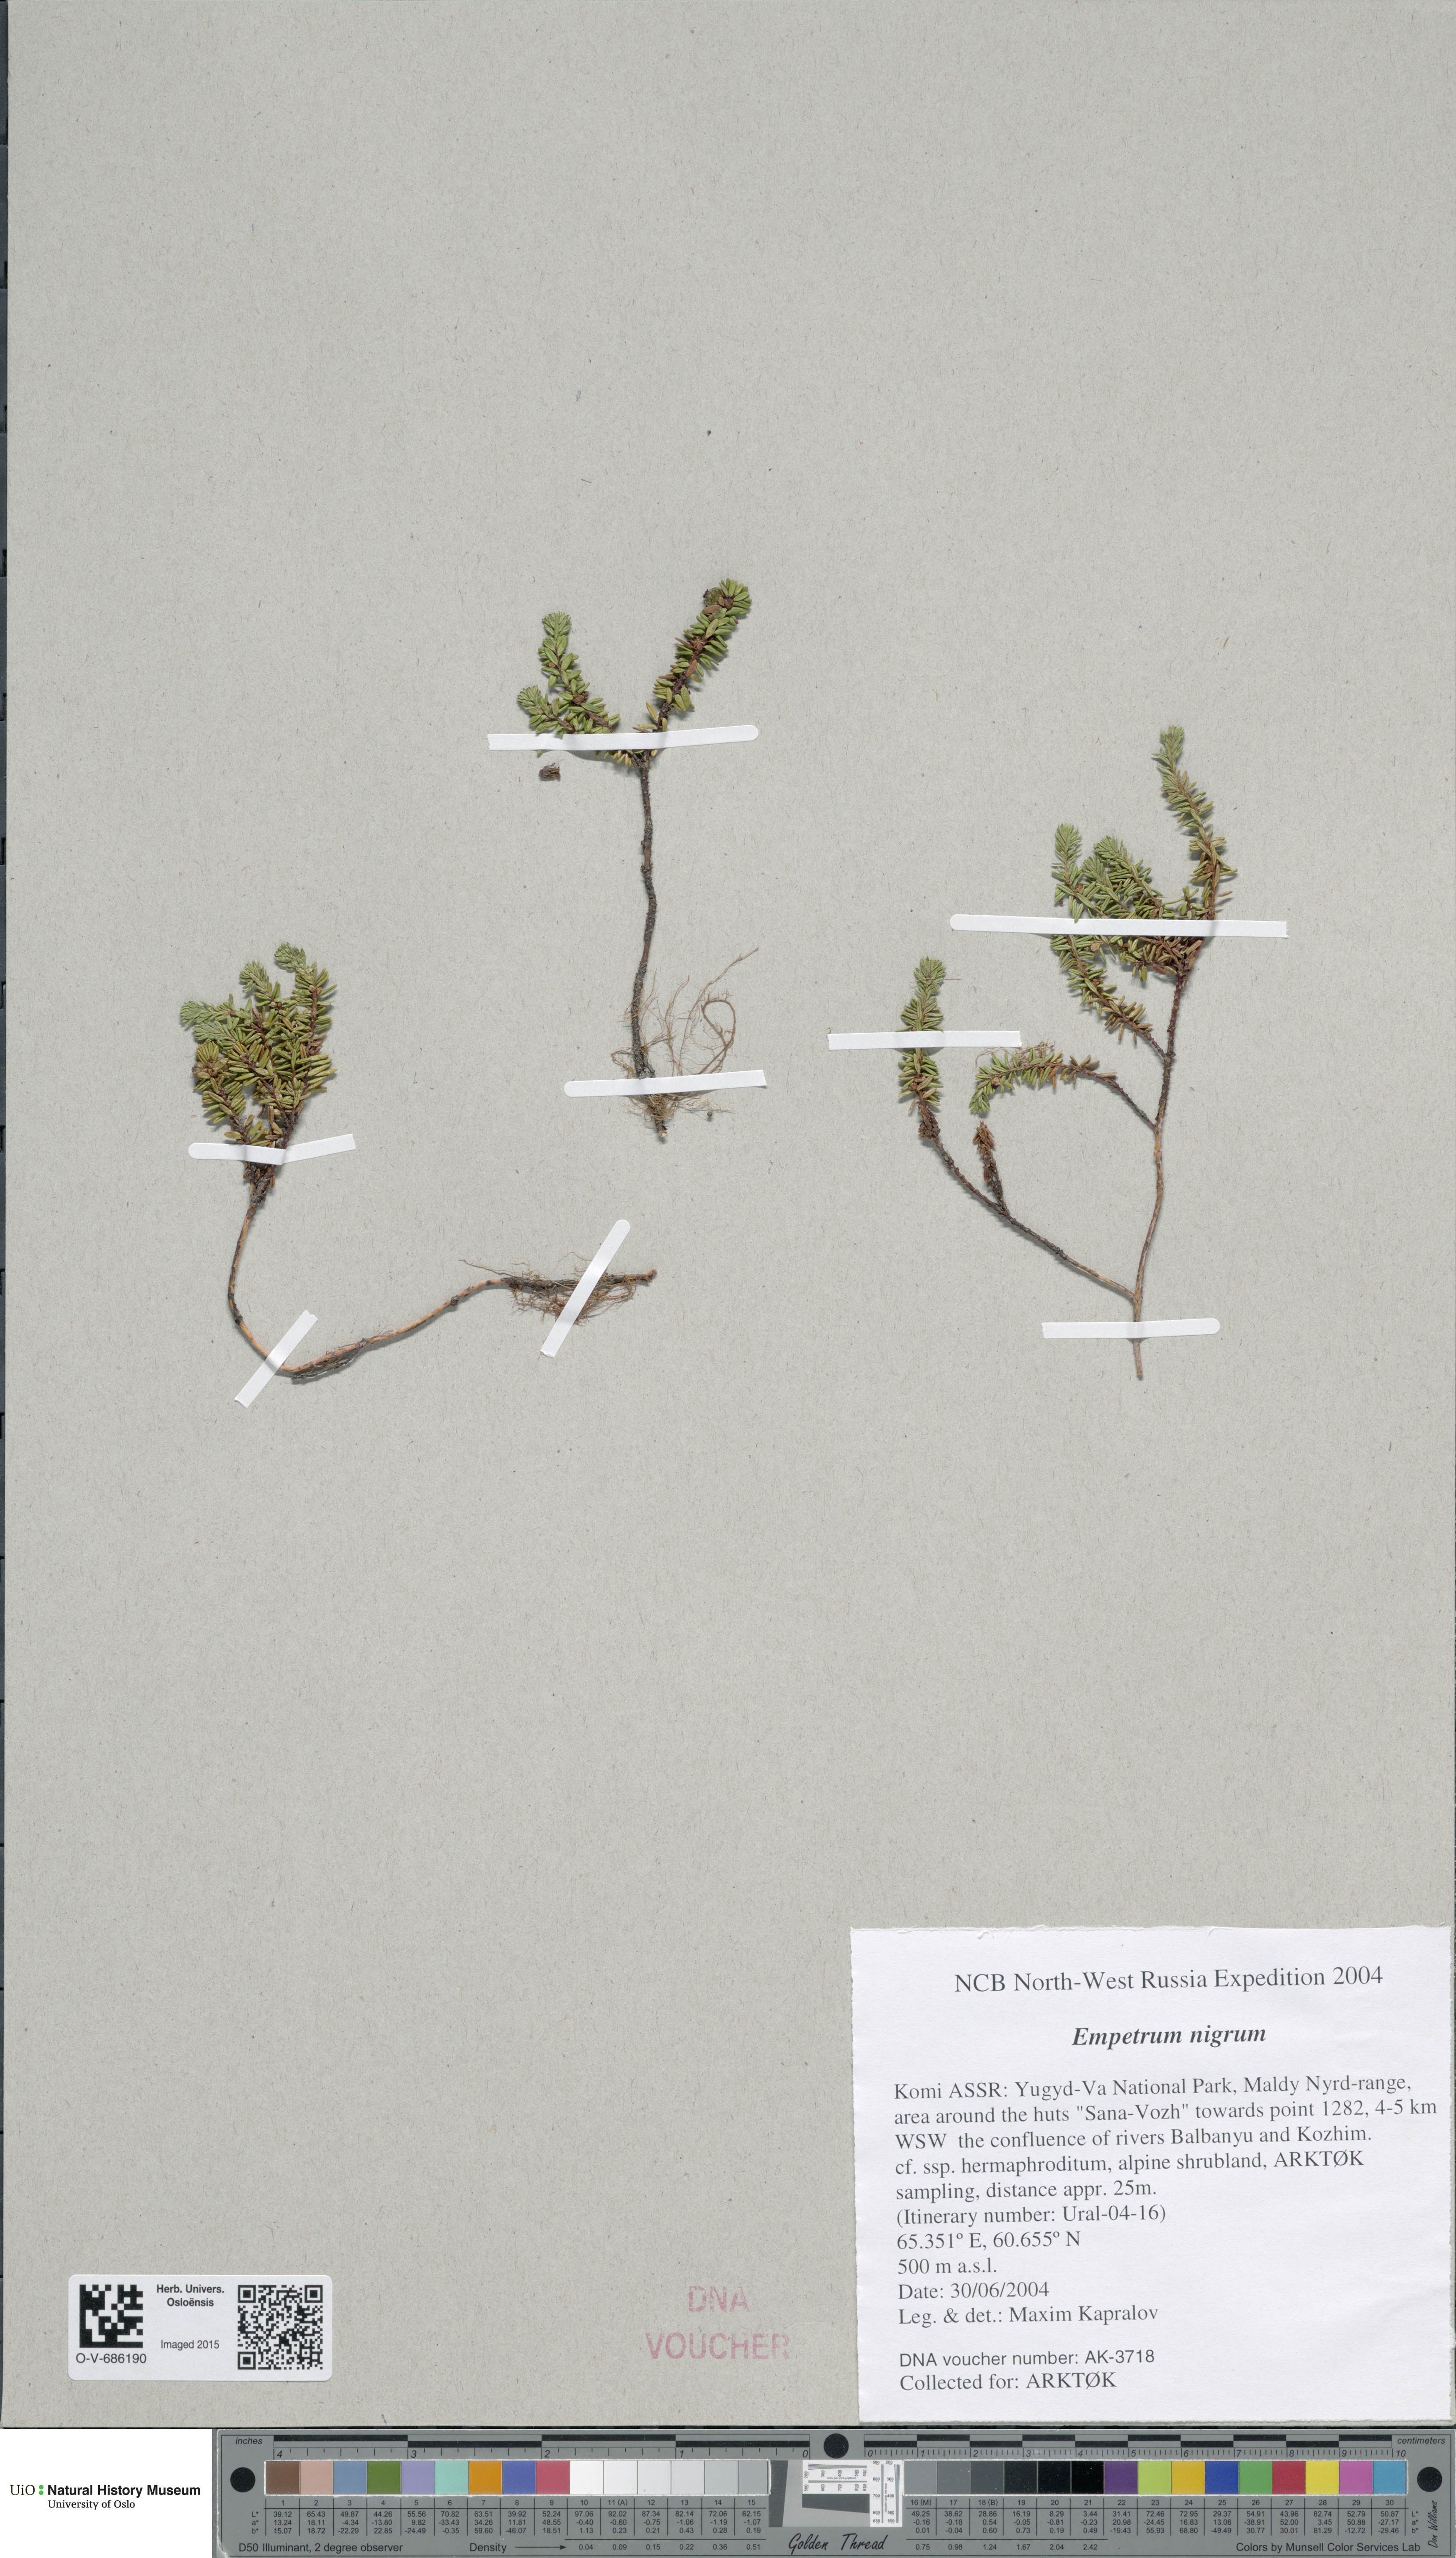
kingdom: Plantae
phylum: Tracheophyta
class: Magnoliopsida
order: Ericales
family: Ericaceae
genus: Empetrum
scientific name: Empetrum nigrum
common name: Black crowberry
